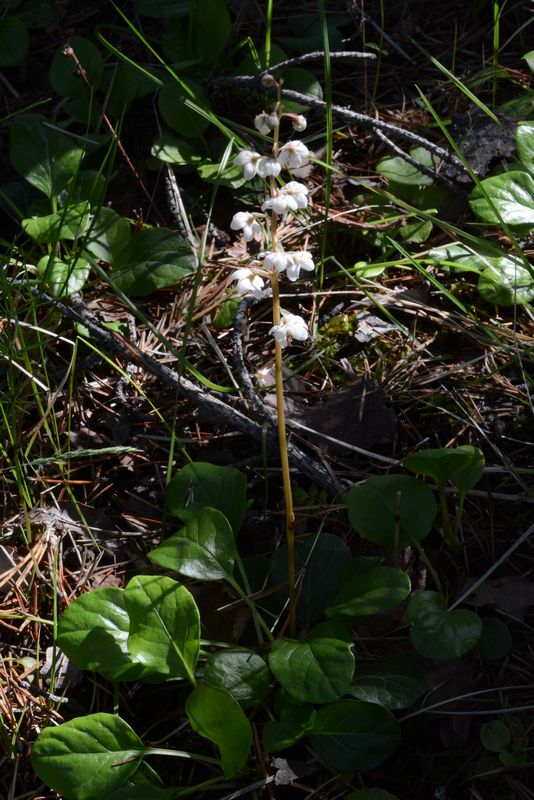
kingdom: Plantae
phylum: Tracheophyta
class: Magnoliopsida
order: Ericales
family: Ericaceae
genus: Pyrola
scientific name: Pyrola rotundifolia
